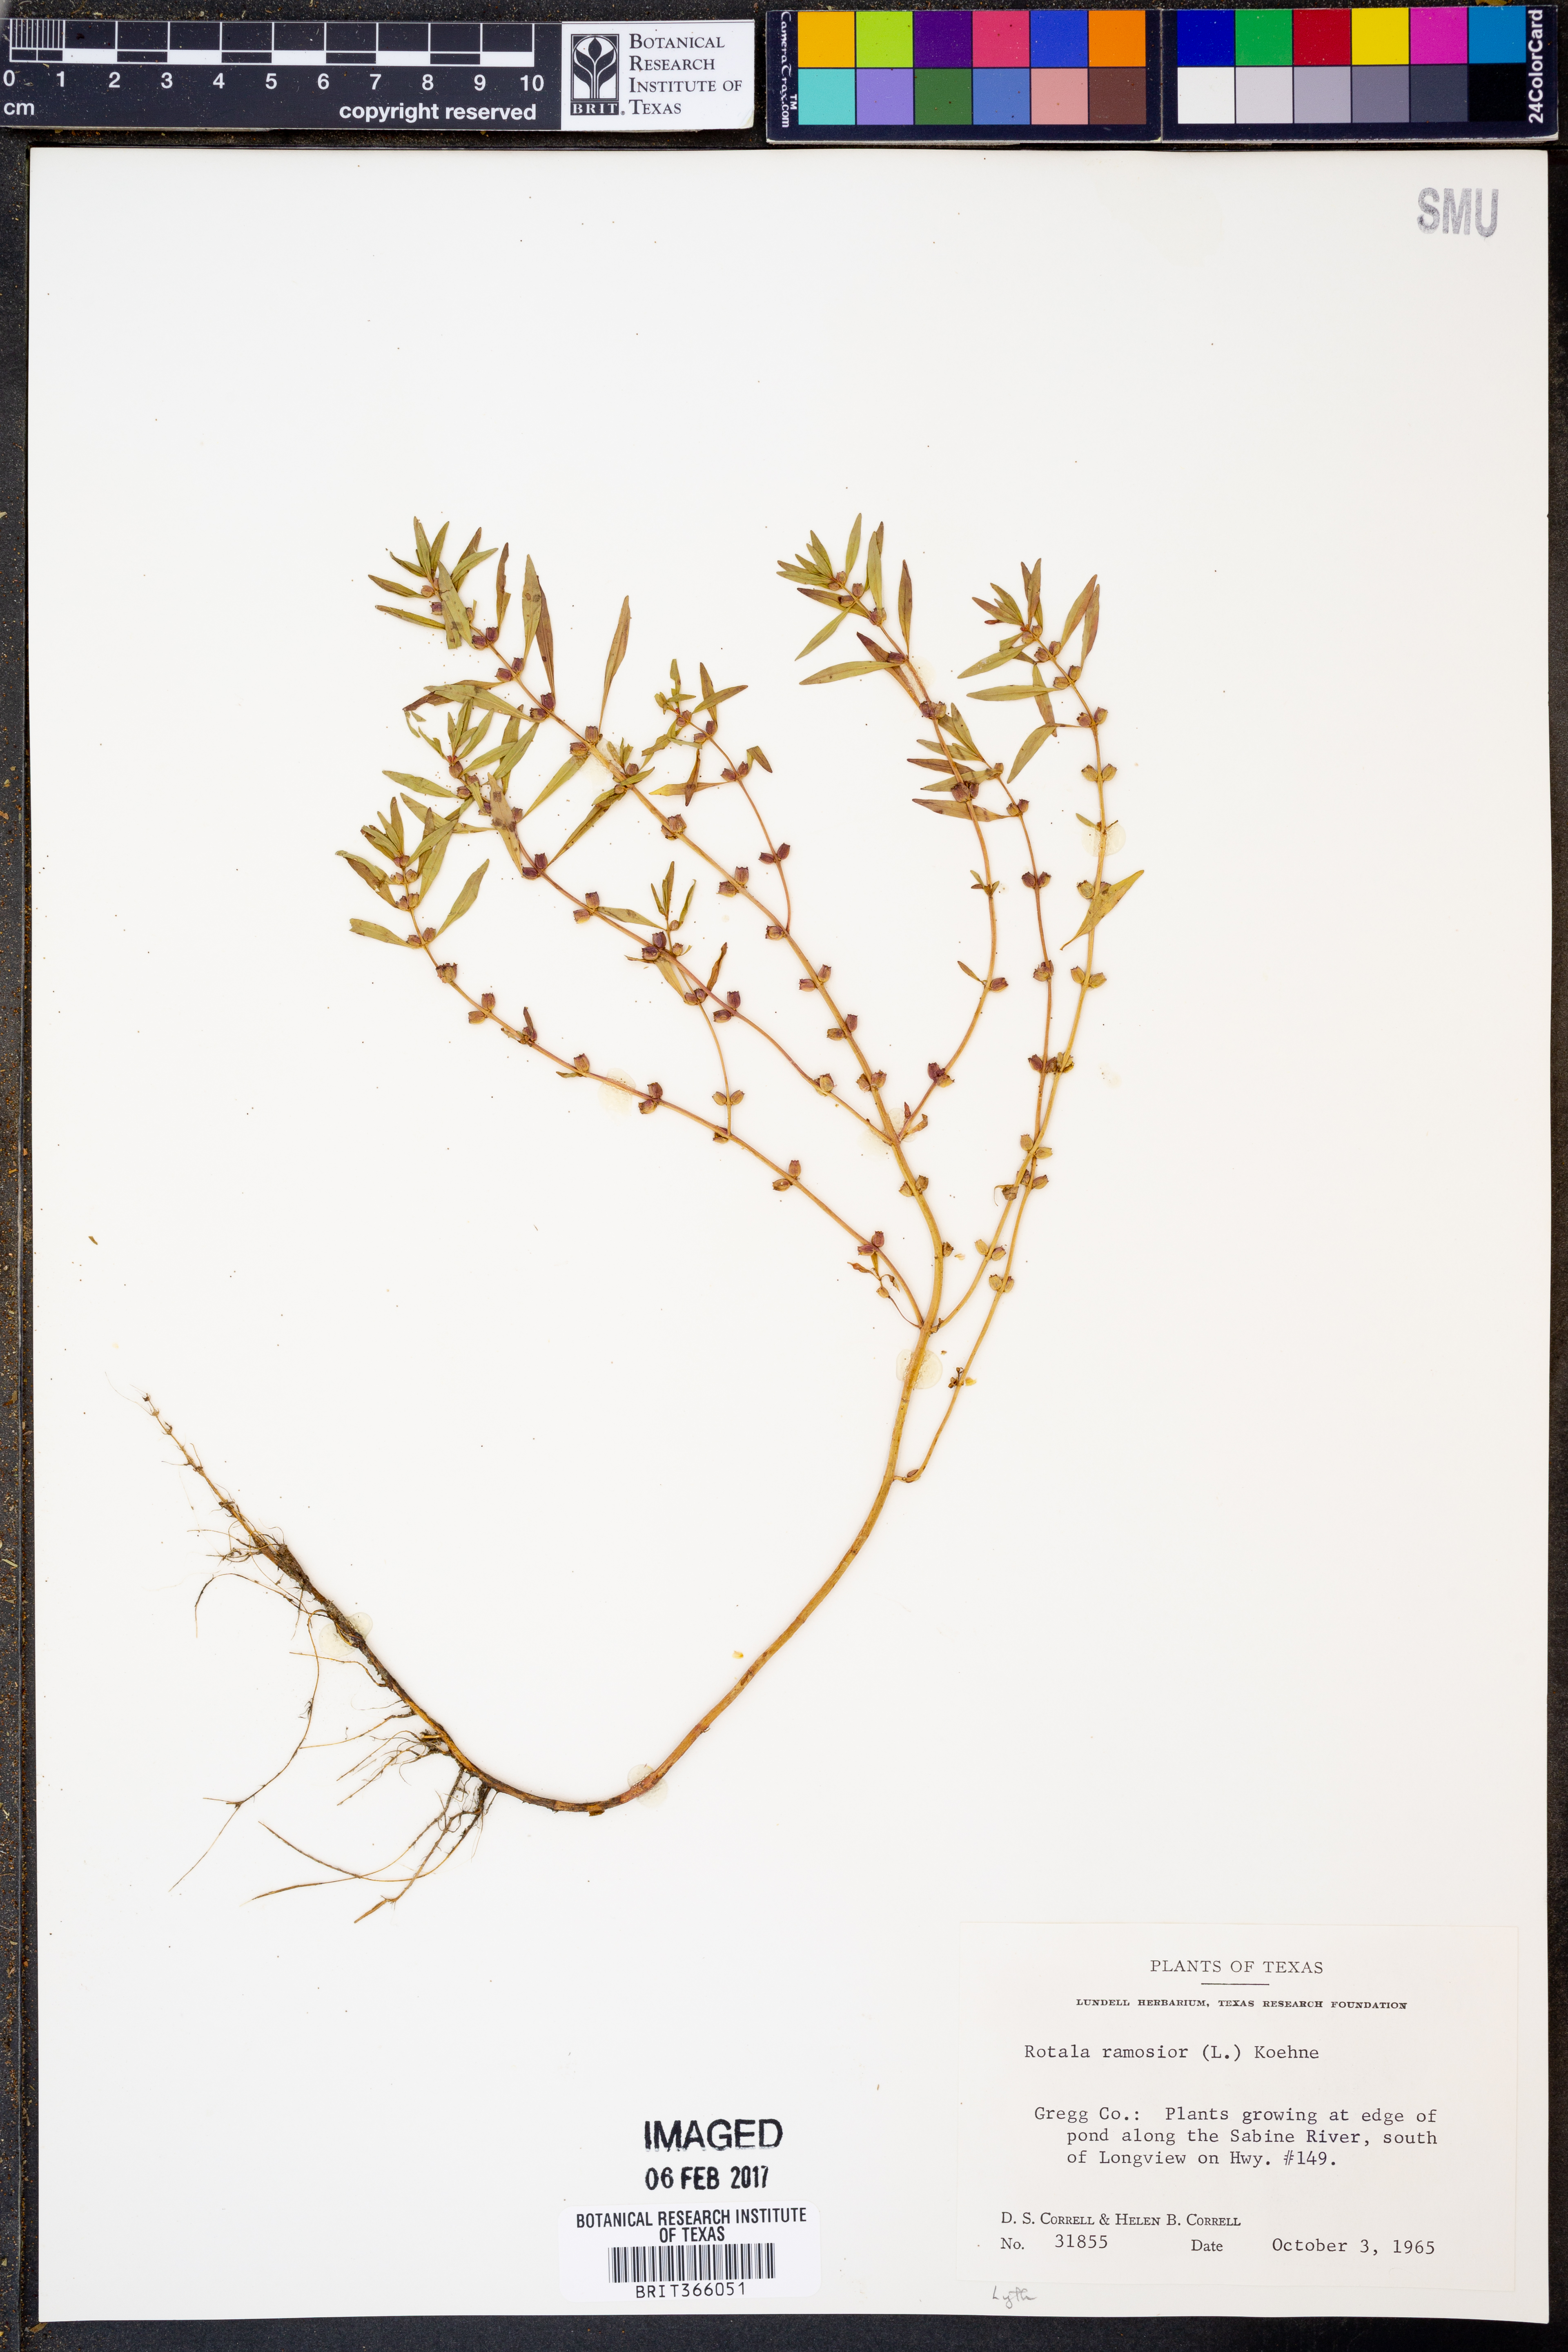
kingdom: Plantae
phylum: Tracheophyta
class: Magnoliopsida
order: Myrtales
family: Lythraceae
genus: Rotala
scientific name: Rotala ramosior
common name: Lowland rotala
